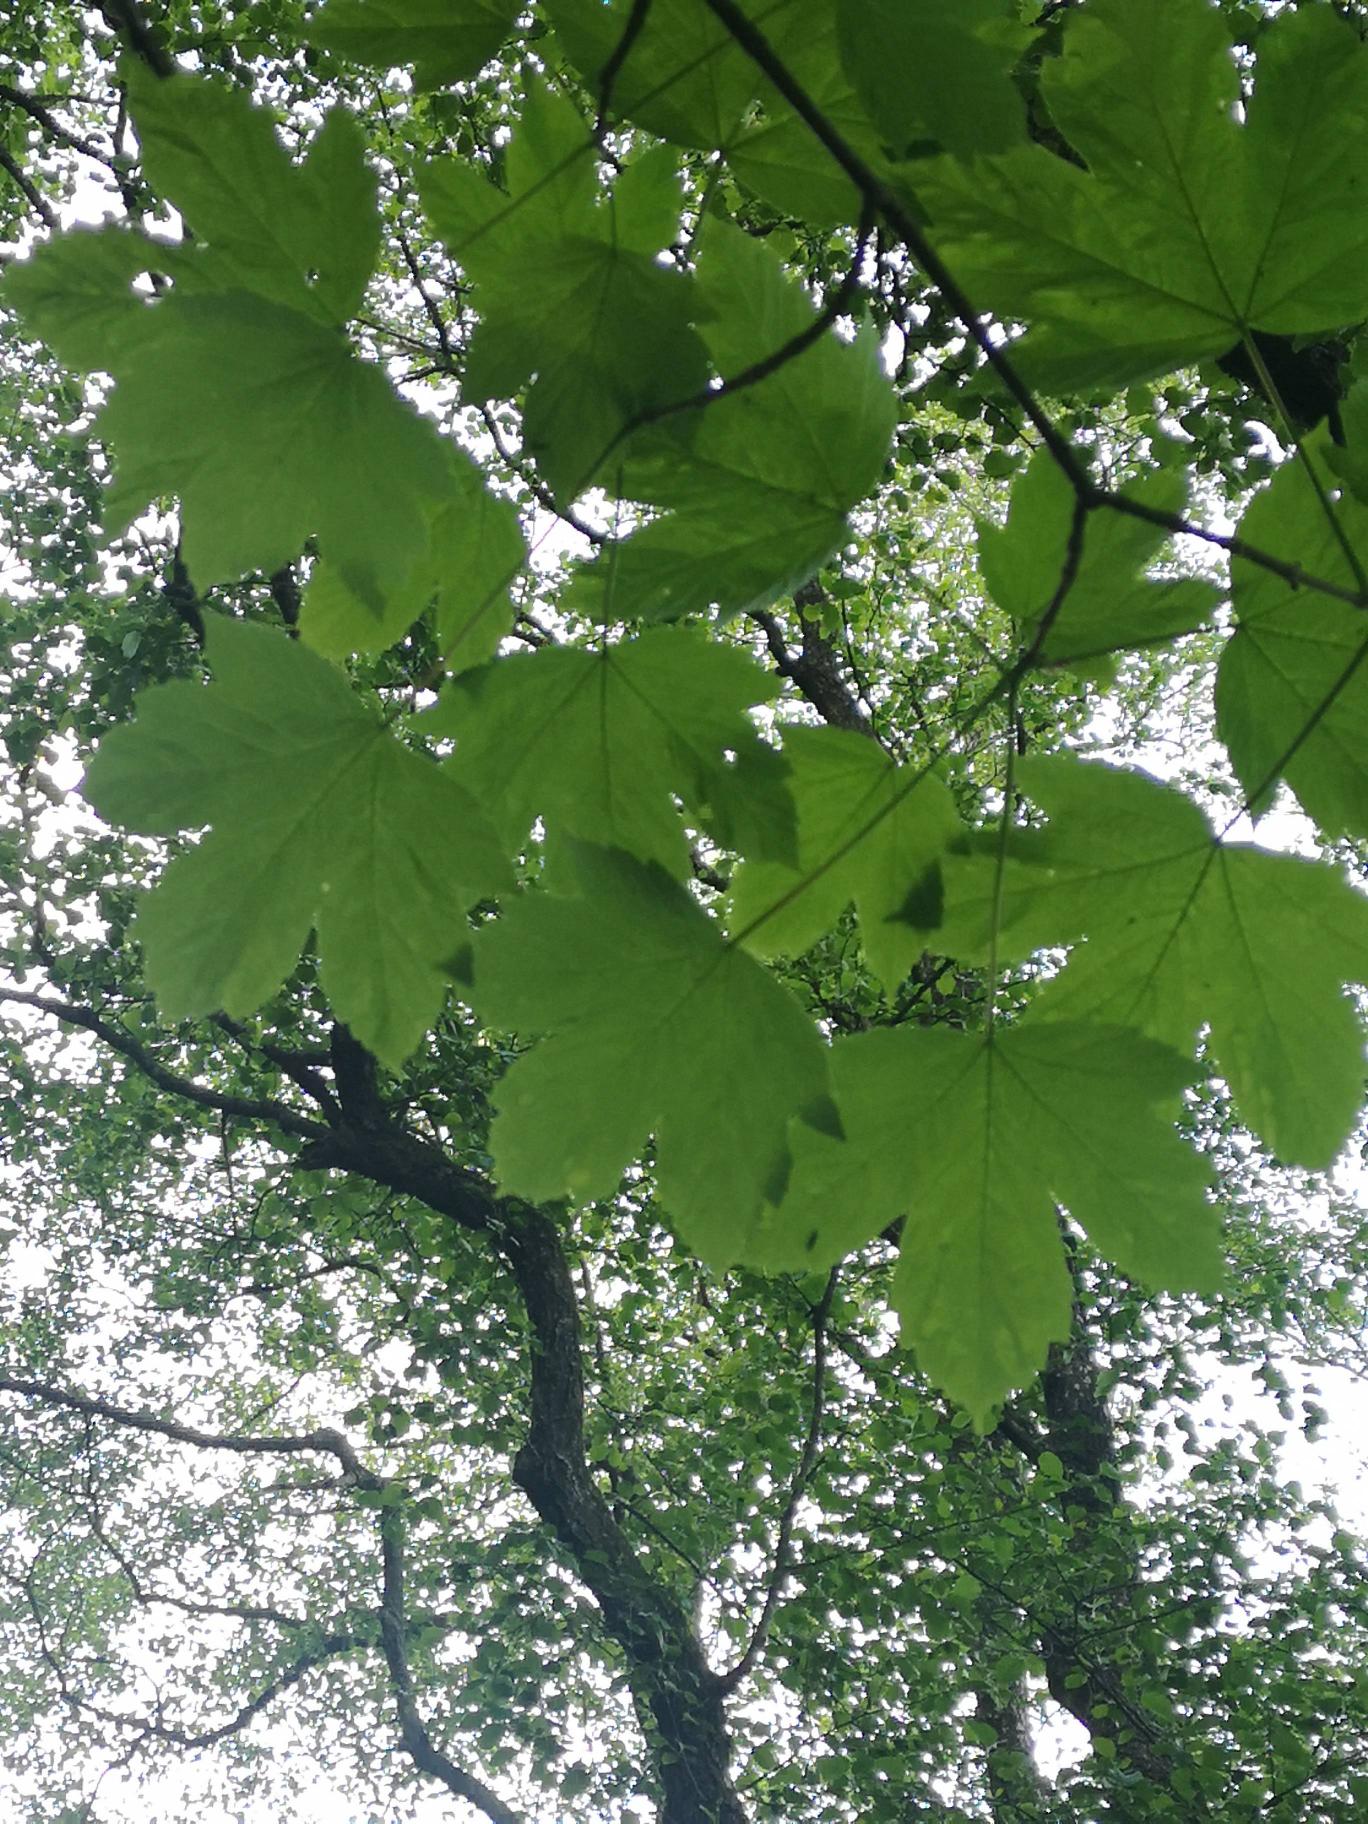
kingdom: Plantae
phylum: Tracheophyta
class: Magnoliopsida
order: Sapindales
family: Sapindaceae
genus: Acer
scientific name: Acer pseudoplatanus
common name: Ahorn
